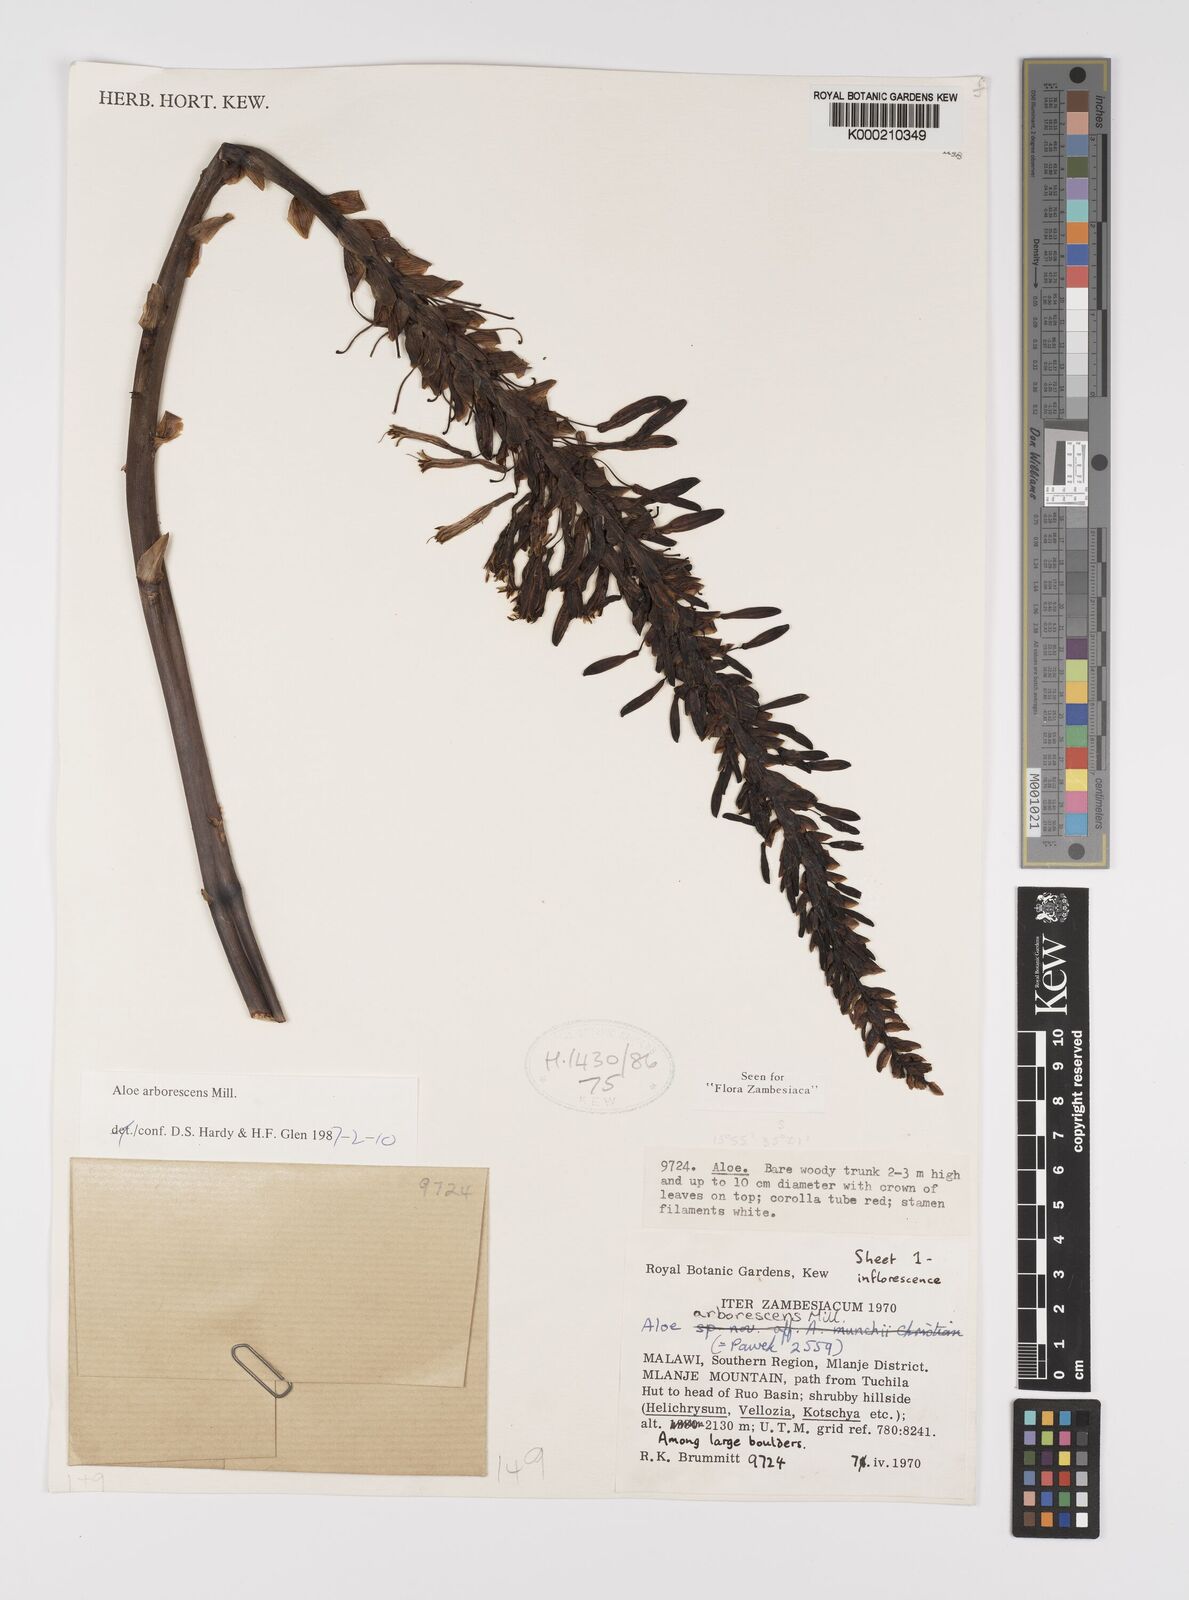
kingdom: Plantae
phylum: Tracheophyta
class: Liliopsida
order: Asparagales
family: Asphodelaceae
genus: Aloe
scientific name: Aloe arborescens
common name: Candelabra aloe
